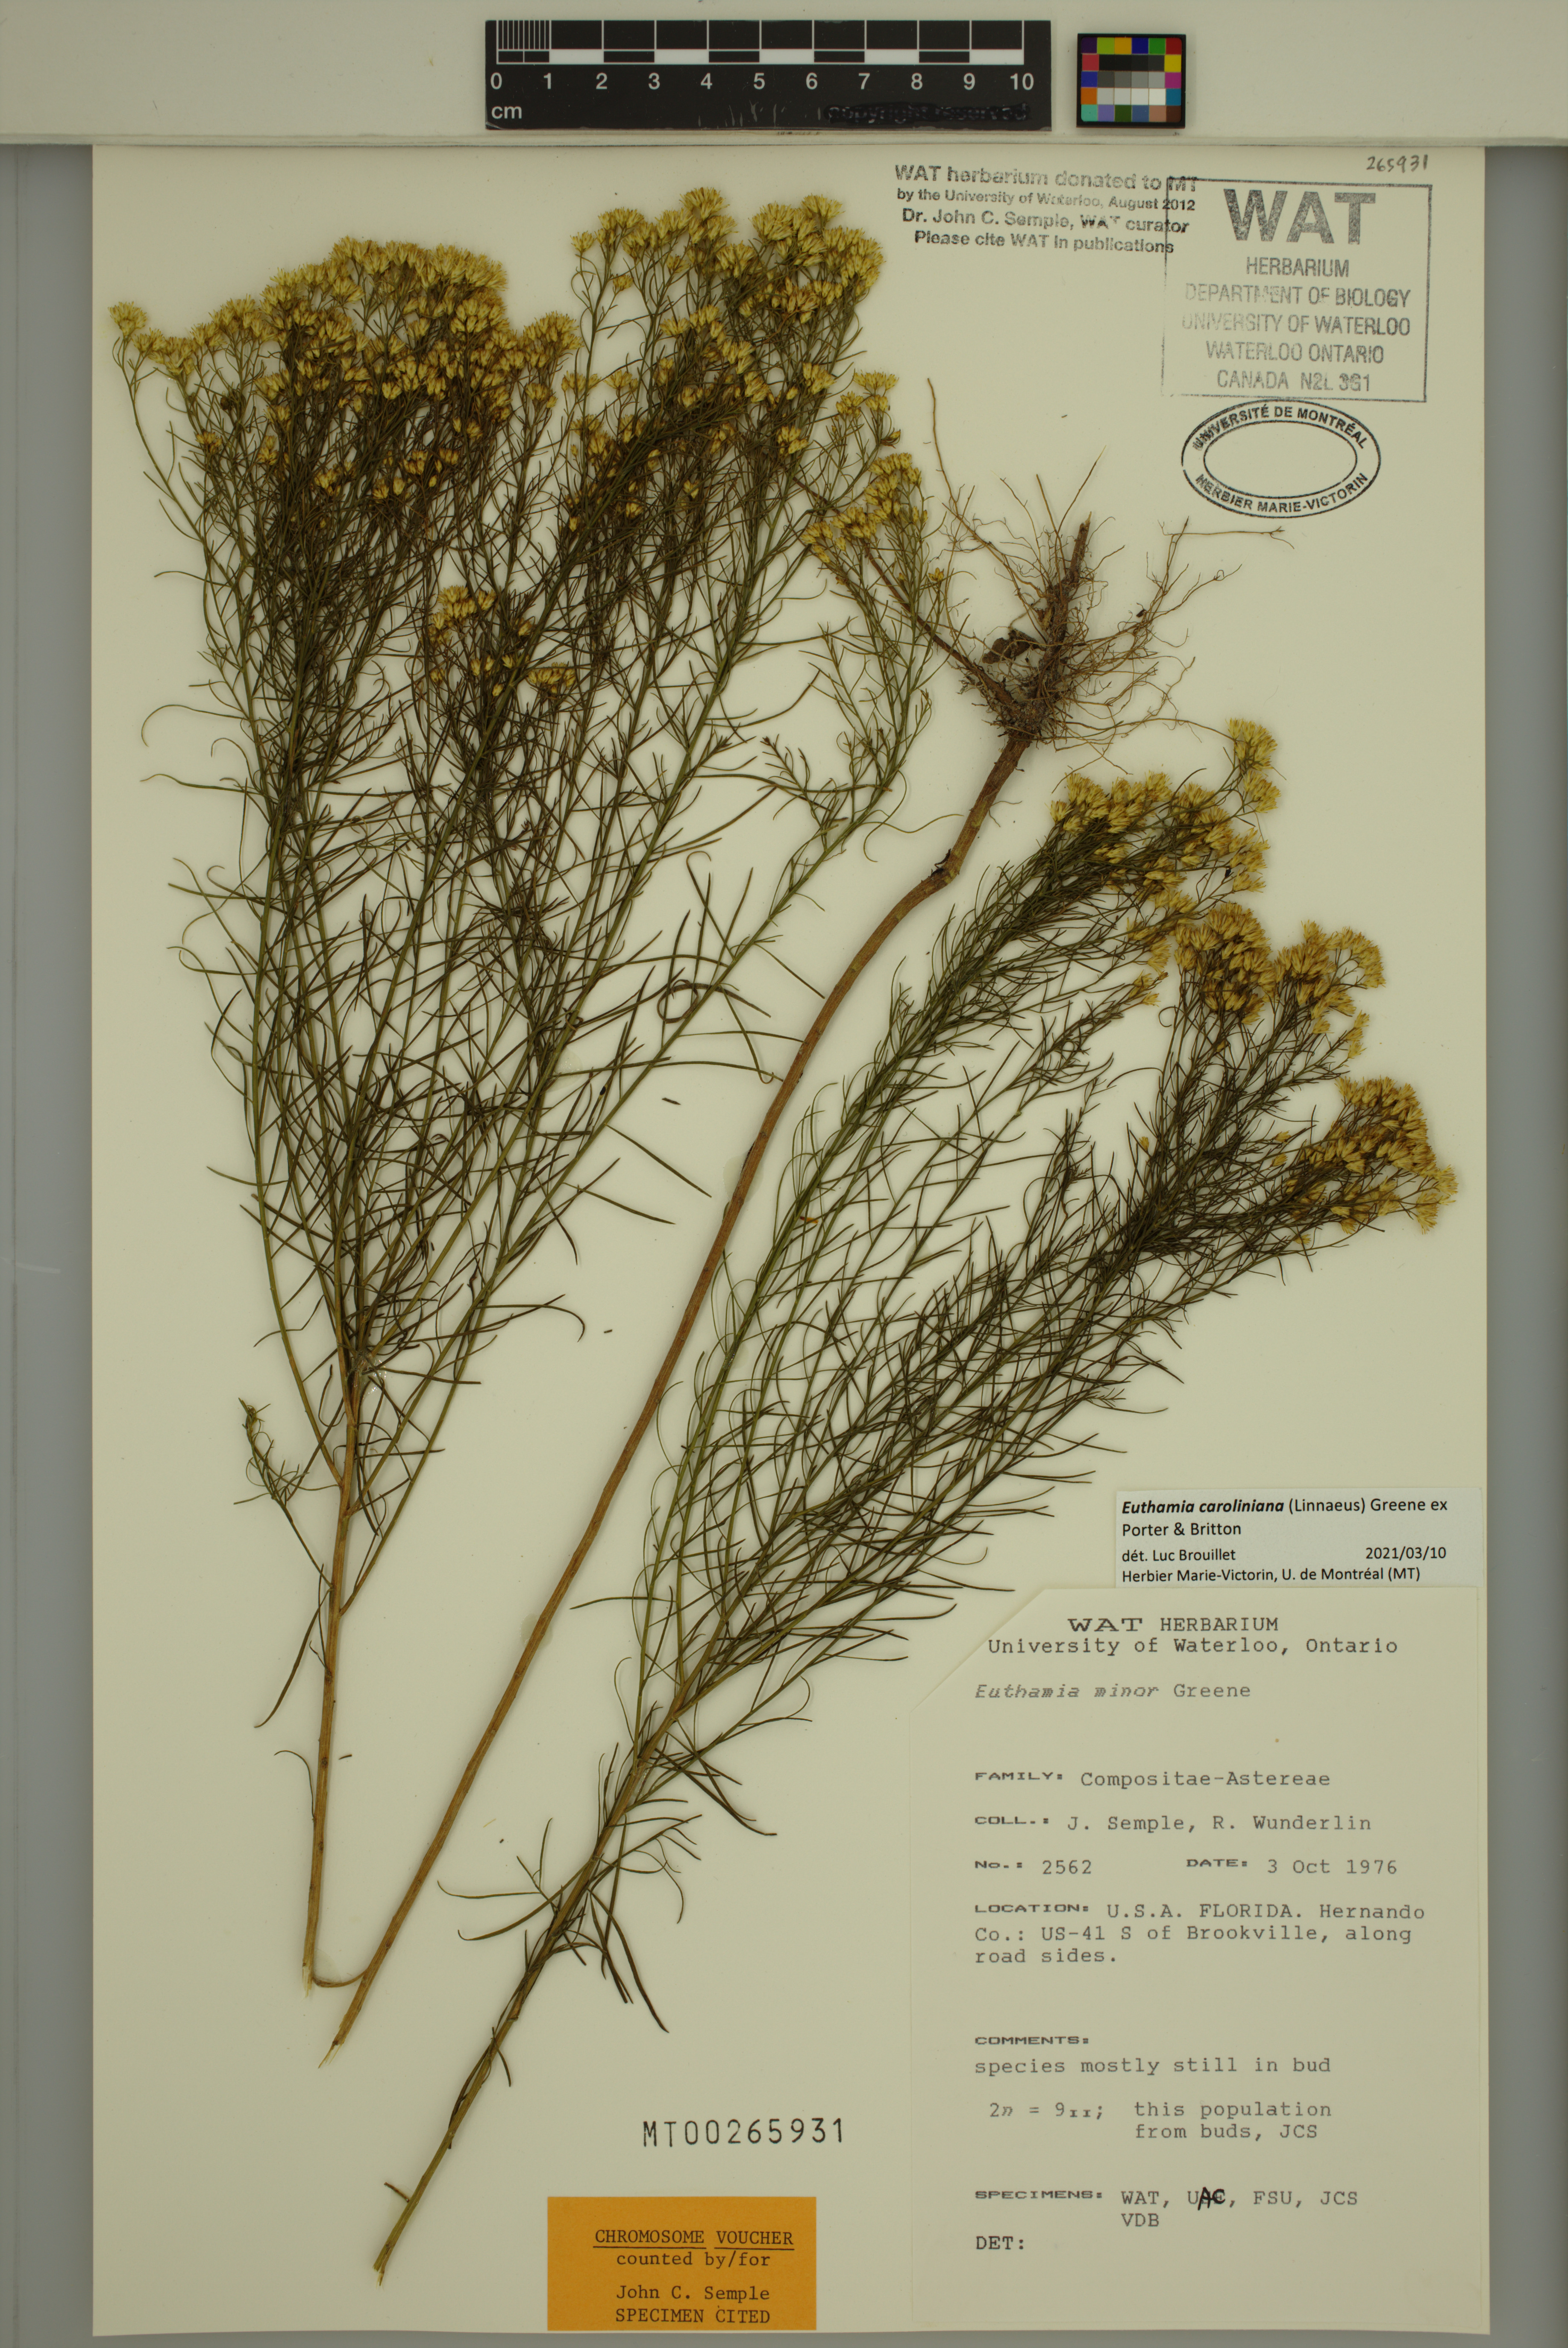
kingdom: Plantae
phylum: Tracheophyta
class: Magnoliopsida
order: Asterales
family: Asteraceae
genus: Euthamia
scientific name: Euthamia caroliniana
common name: Coastal plain goldentop
